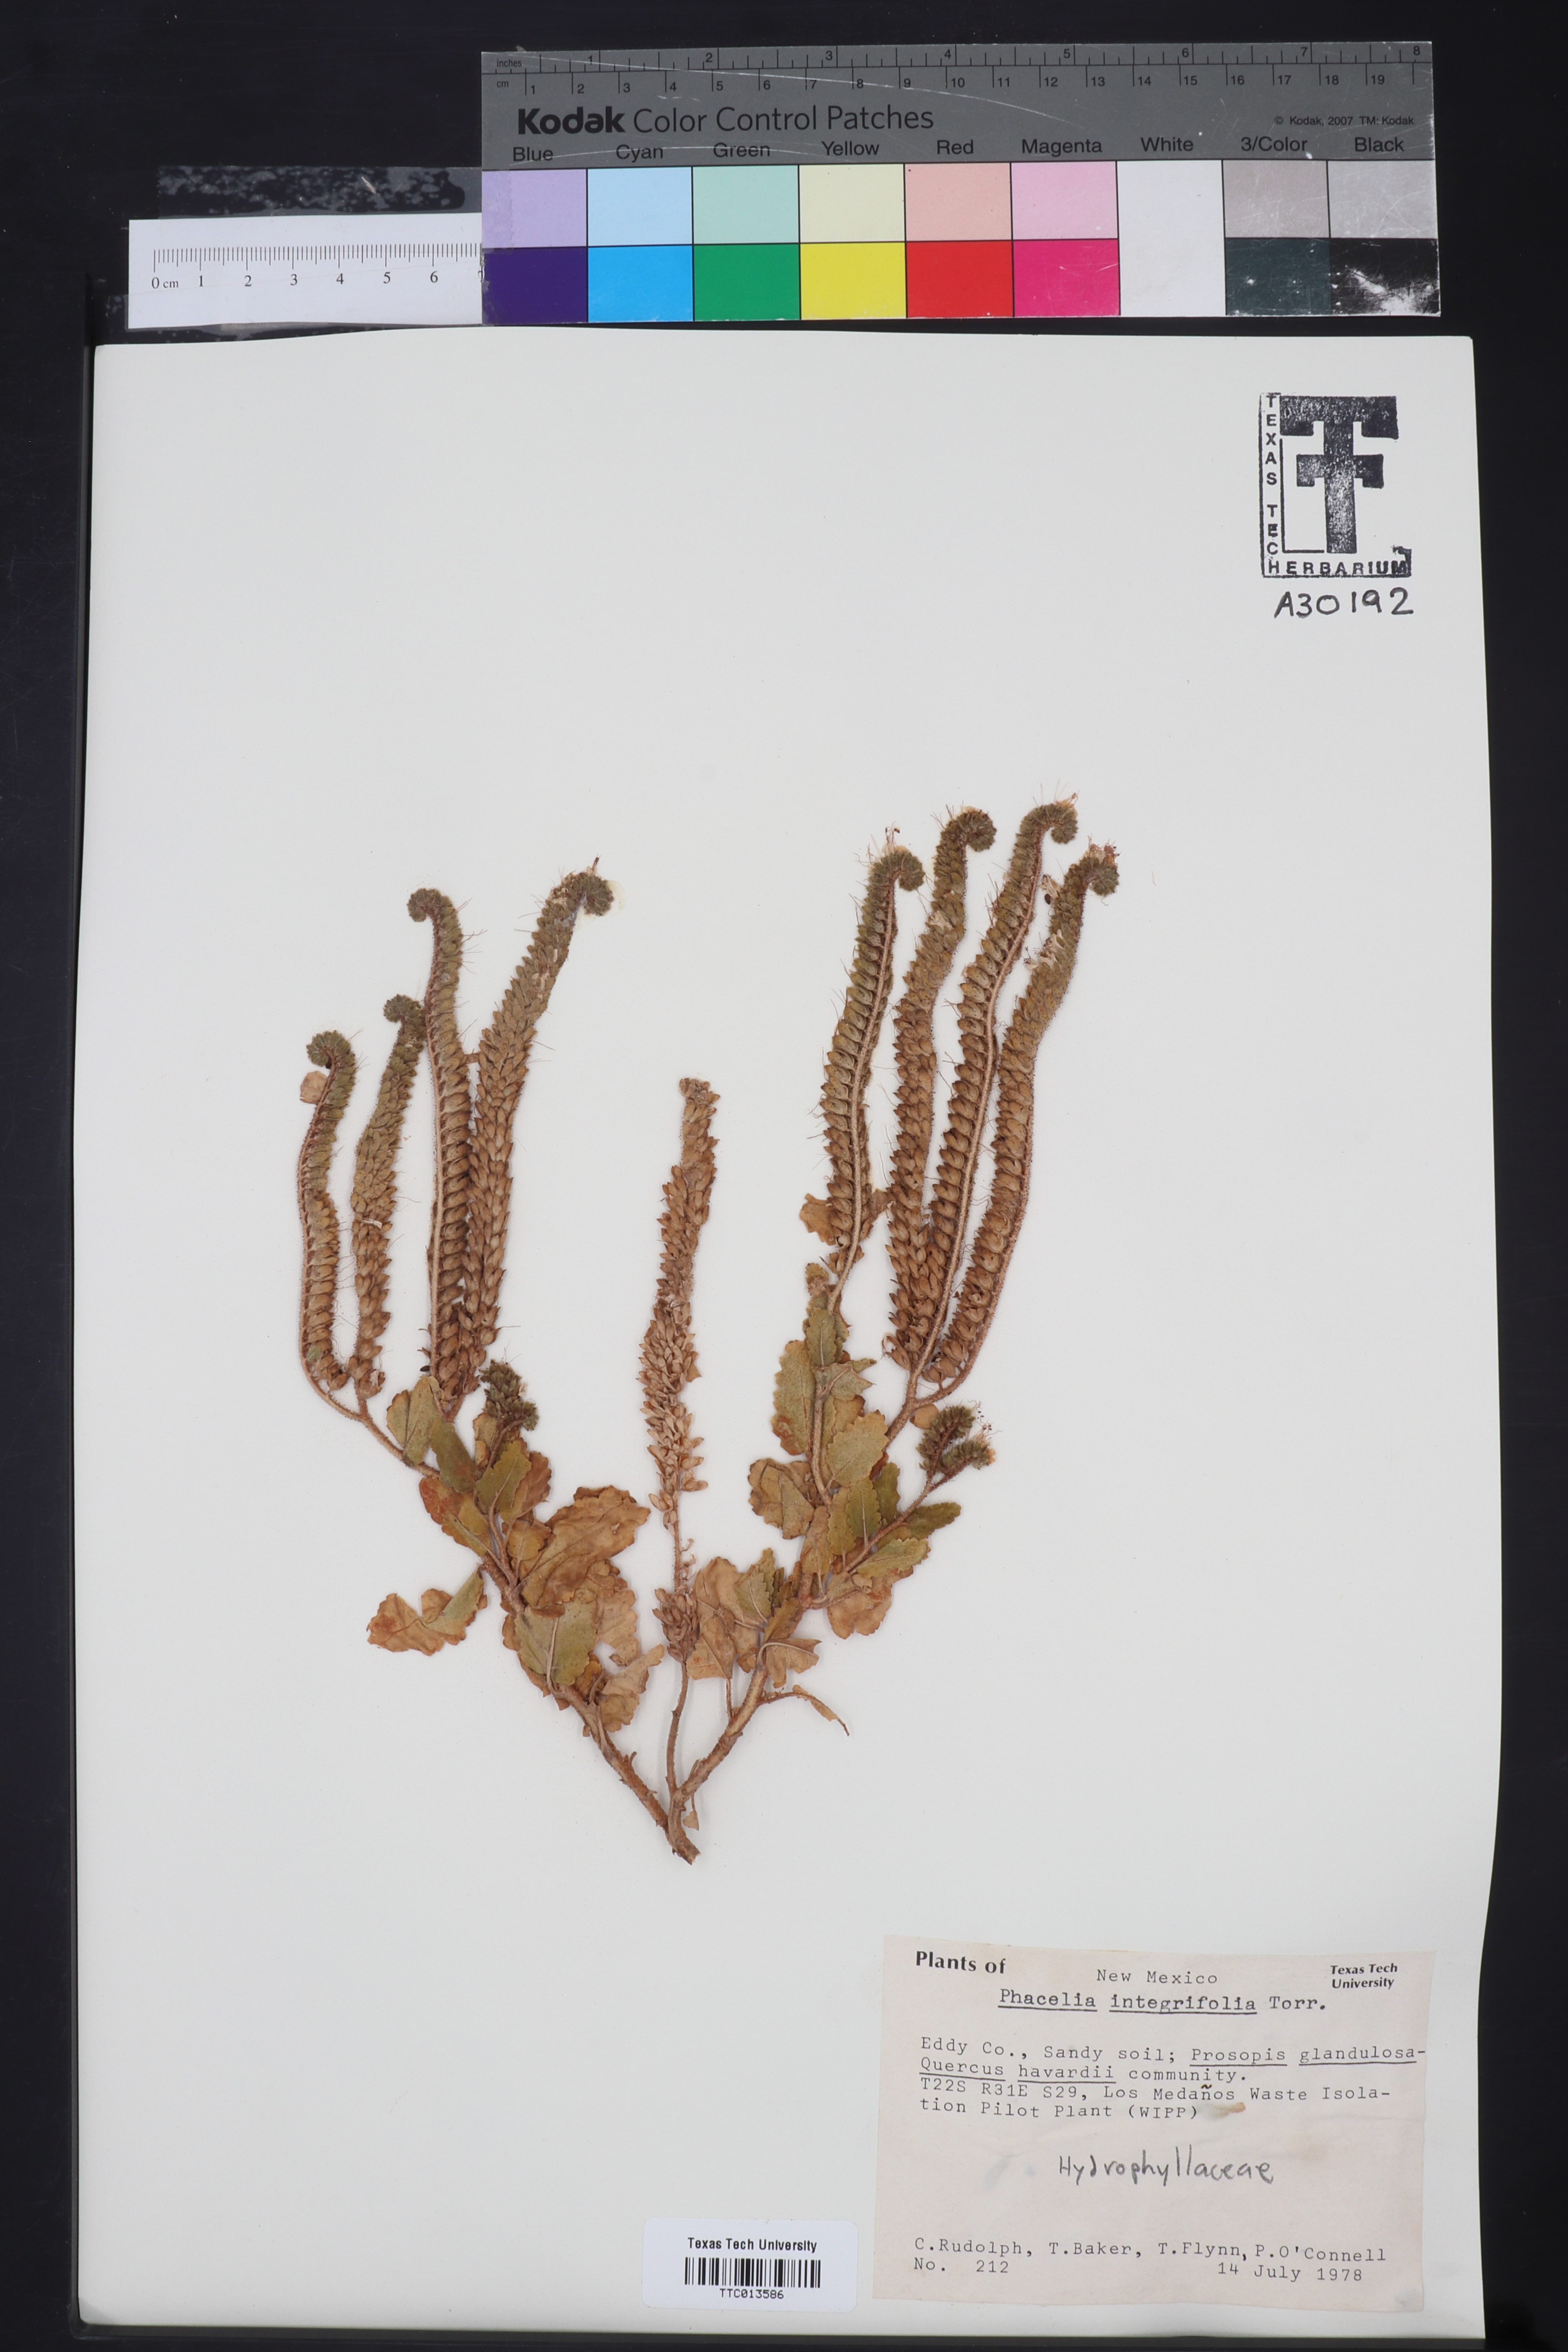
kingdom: Plantae
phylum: Tracheophyta
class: Magnoliopsida
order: Boraginales
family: Hydrophyllaceae
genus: Phacelia
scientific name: Phacelia integrifolia
